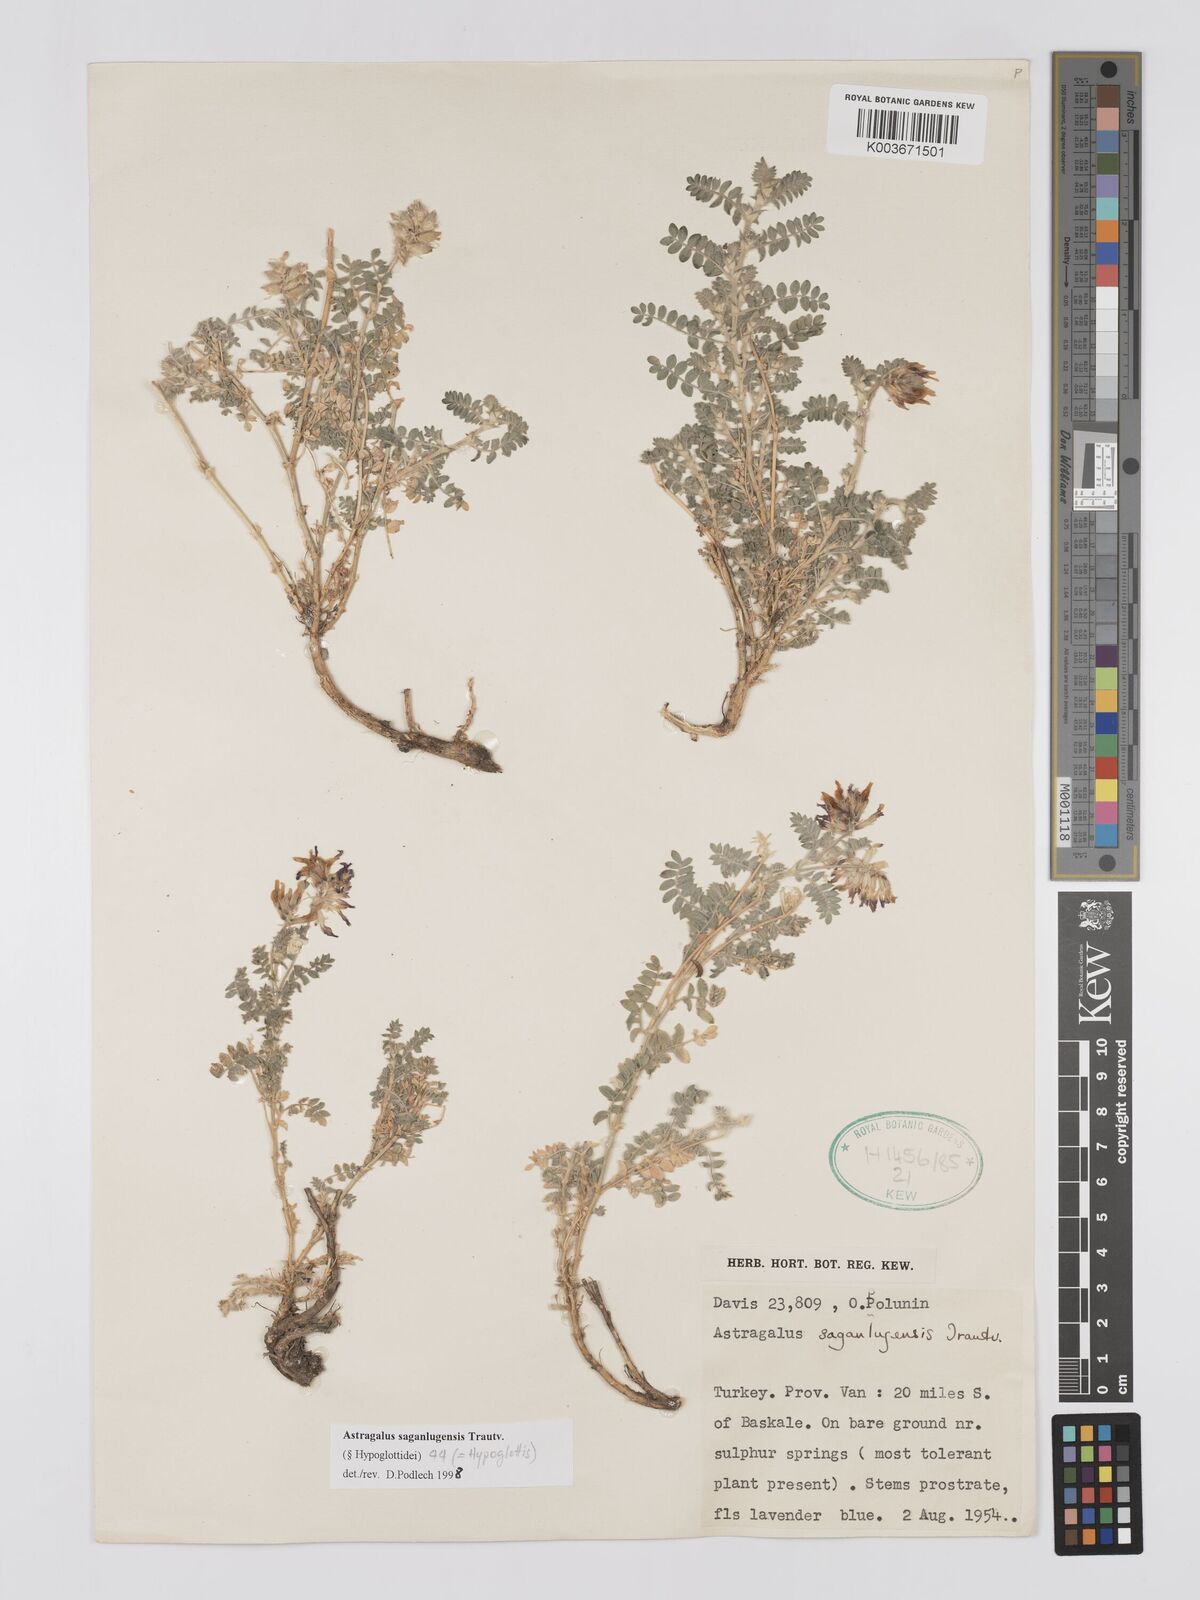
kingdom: Plantae
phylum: Tracheophyta
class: Magnoliopsida
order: Fabales
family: Fabaceae
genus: Astragalus
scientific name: Astragalus saganlugensis
